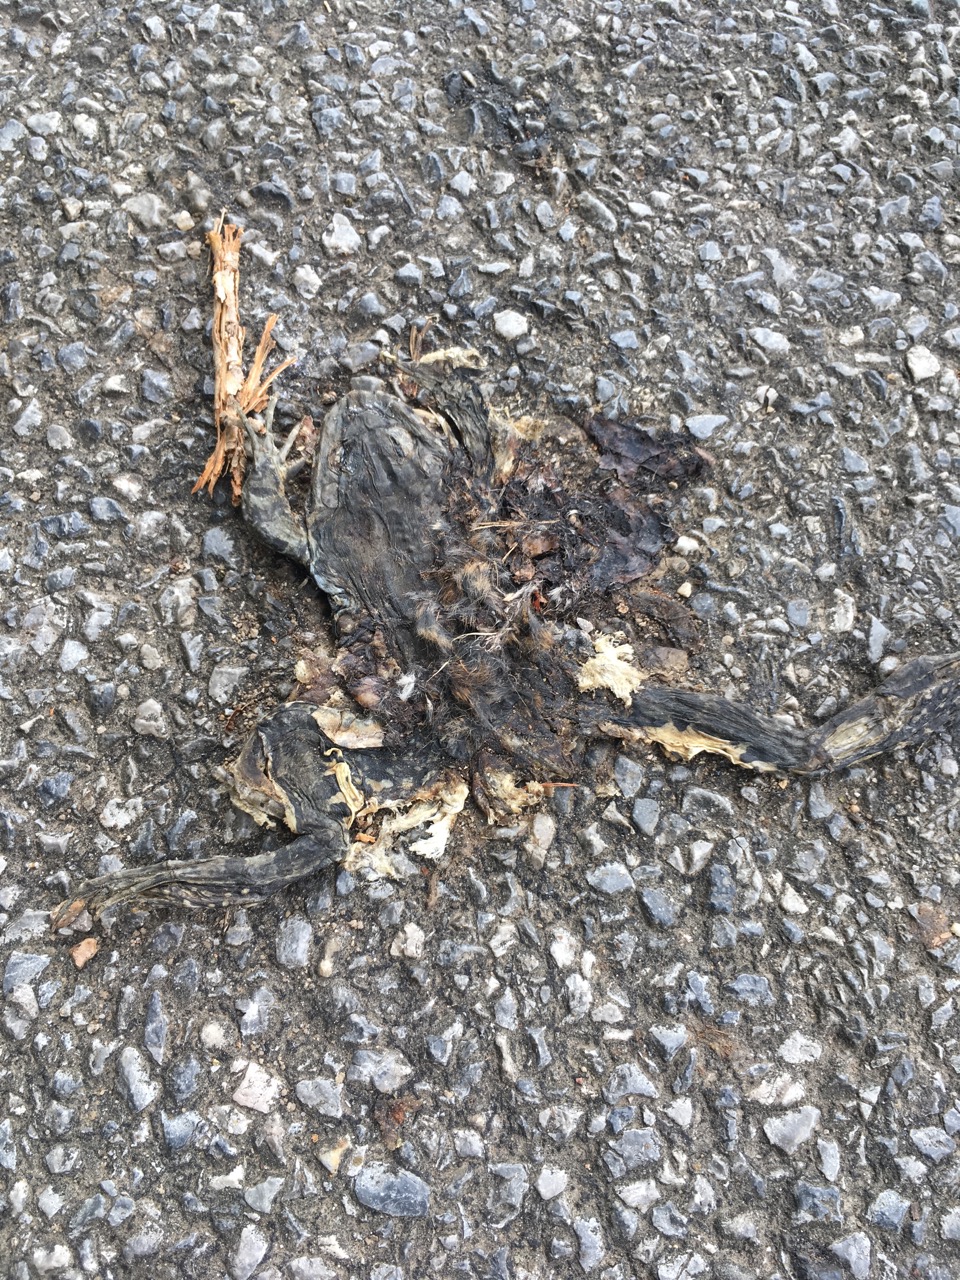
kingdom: Animalia
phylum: Chordata
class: Amphibia
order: Anura
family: Bufonidae
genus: Bufotes
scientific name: Bufotes viridis
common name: European green toad
